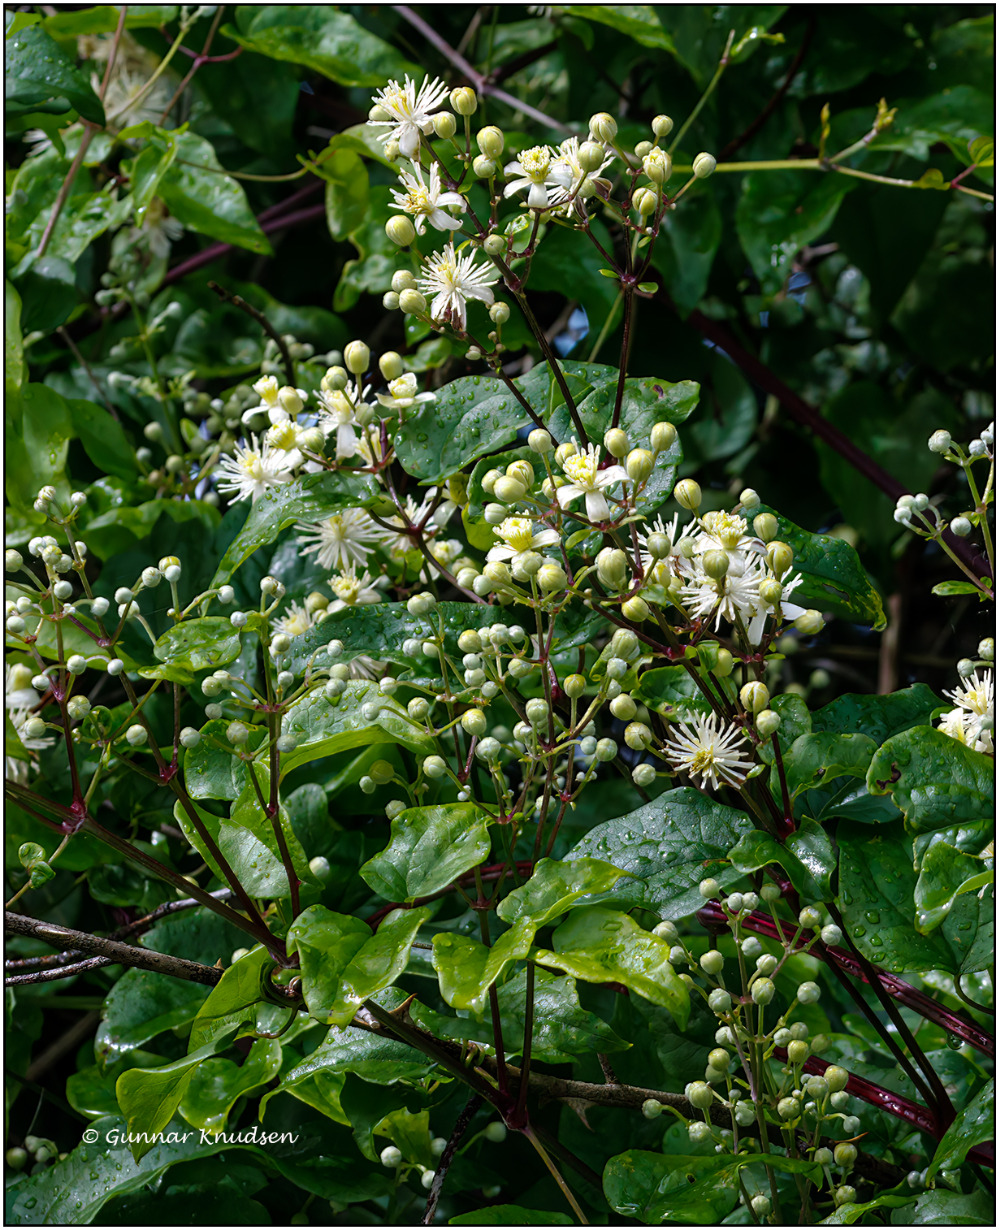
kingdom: Plantae
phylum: Tracheophyta
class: Magnoliopsida
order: Ranunculales
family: Ranunculaceae
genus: Clematis
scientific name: Clematis vitalba
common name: Skovranke
